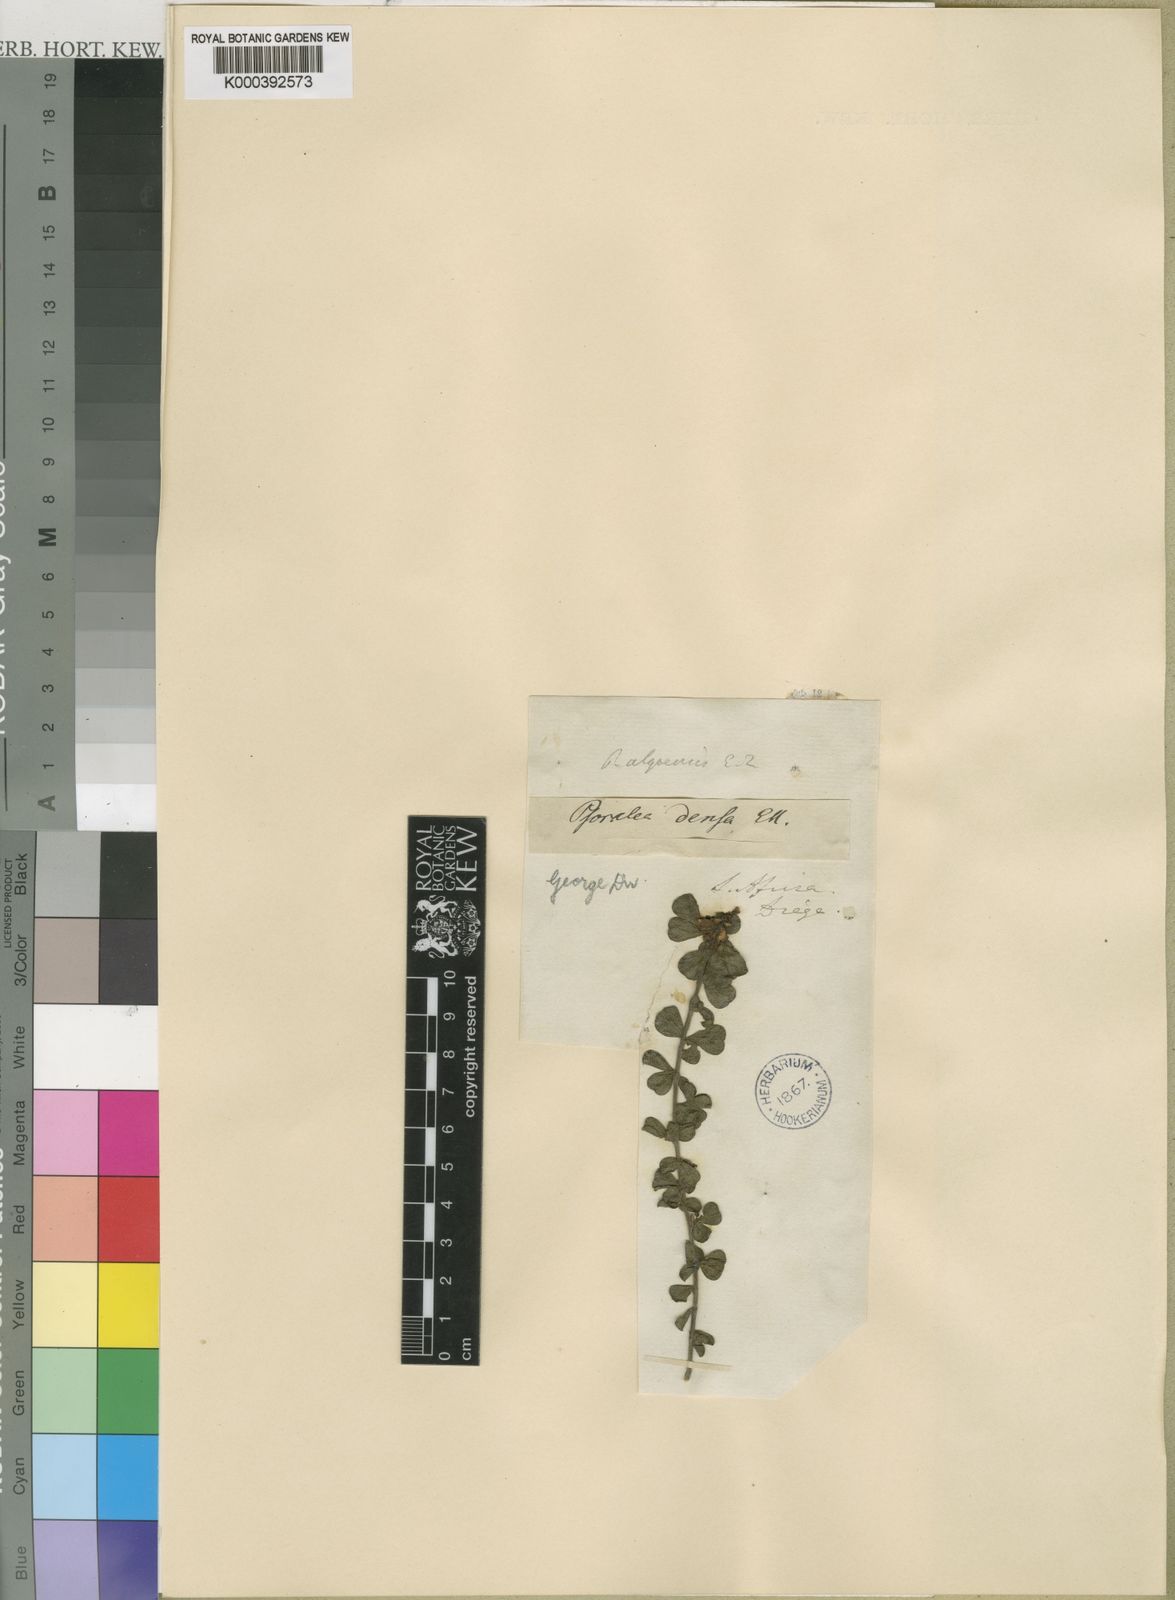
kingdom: Plantae
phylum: Tracheophyta
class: Magnoliopsida
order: Fabales
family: Fabaceae
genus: Psoralea
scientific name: Psoralea acuminata
